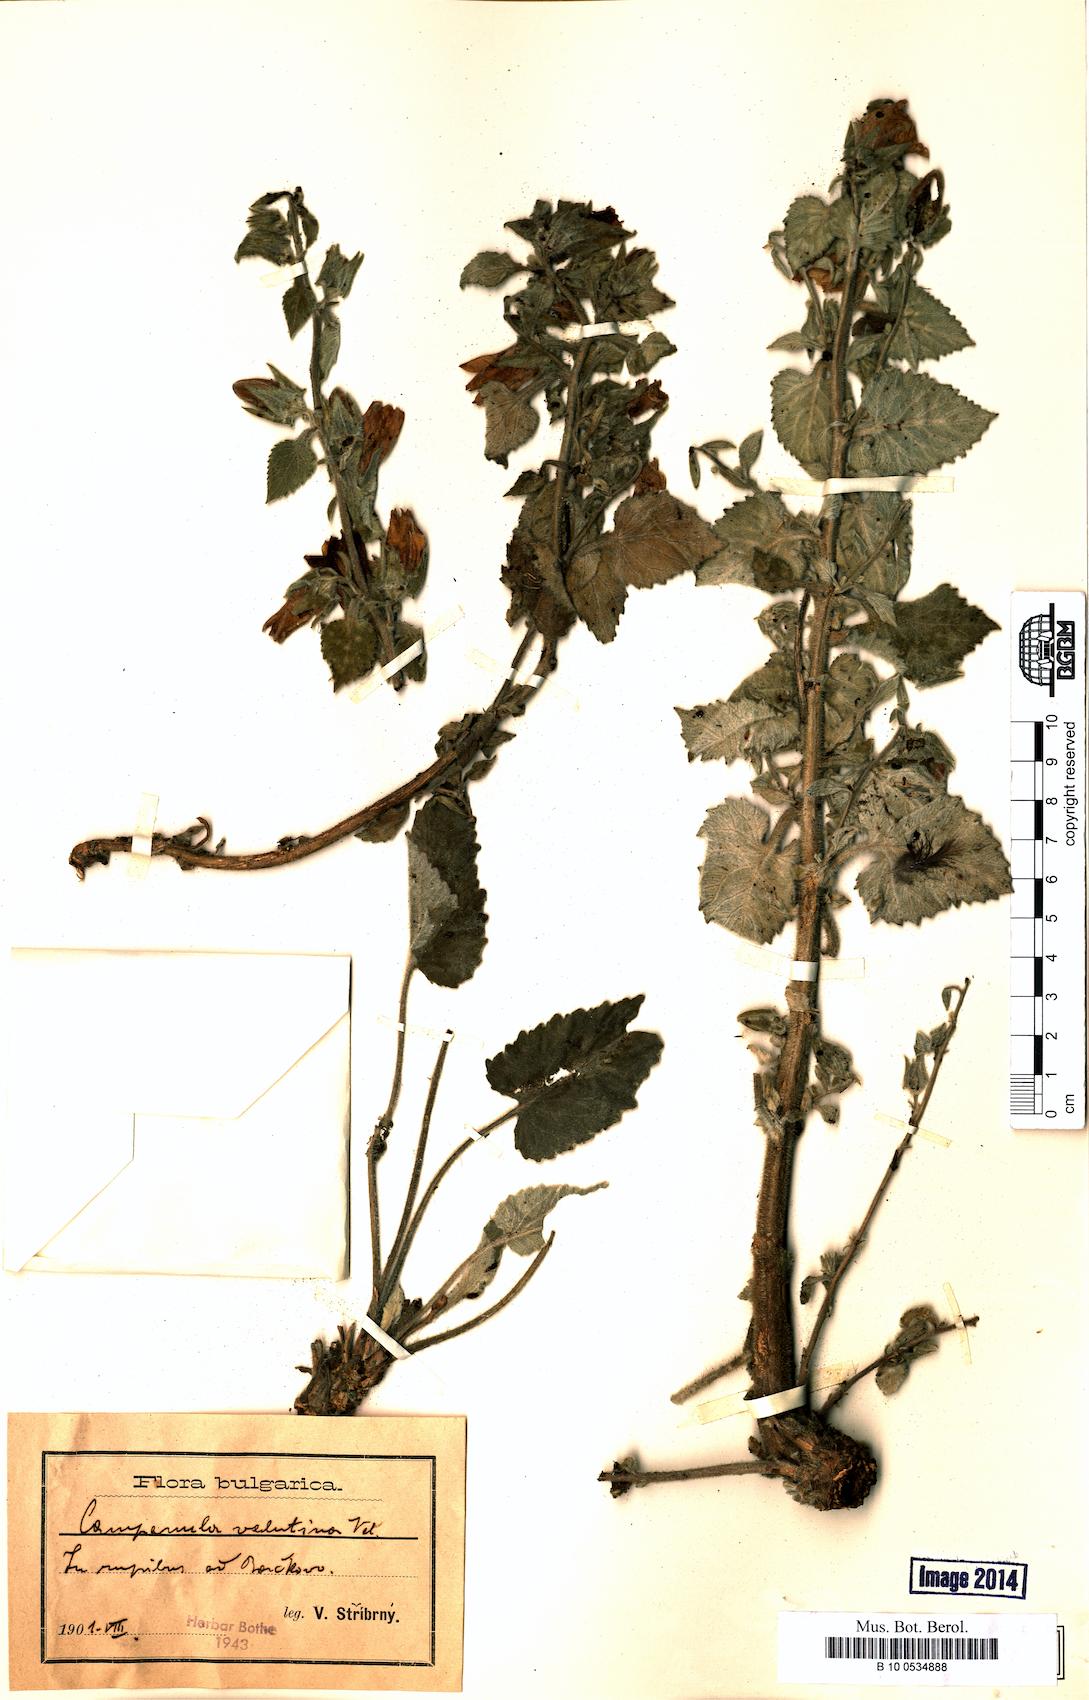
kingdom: Plantae
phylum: Tracheophyta
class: Magnoliopsida
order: Asterales
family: Campanulaceae
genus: Campanula
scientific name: Campanula lanata
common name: Woolly bellflower
